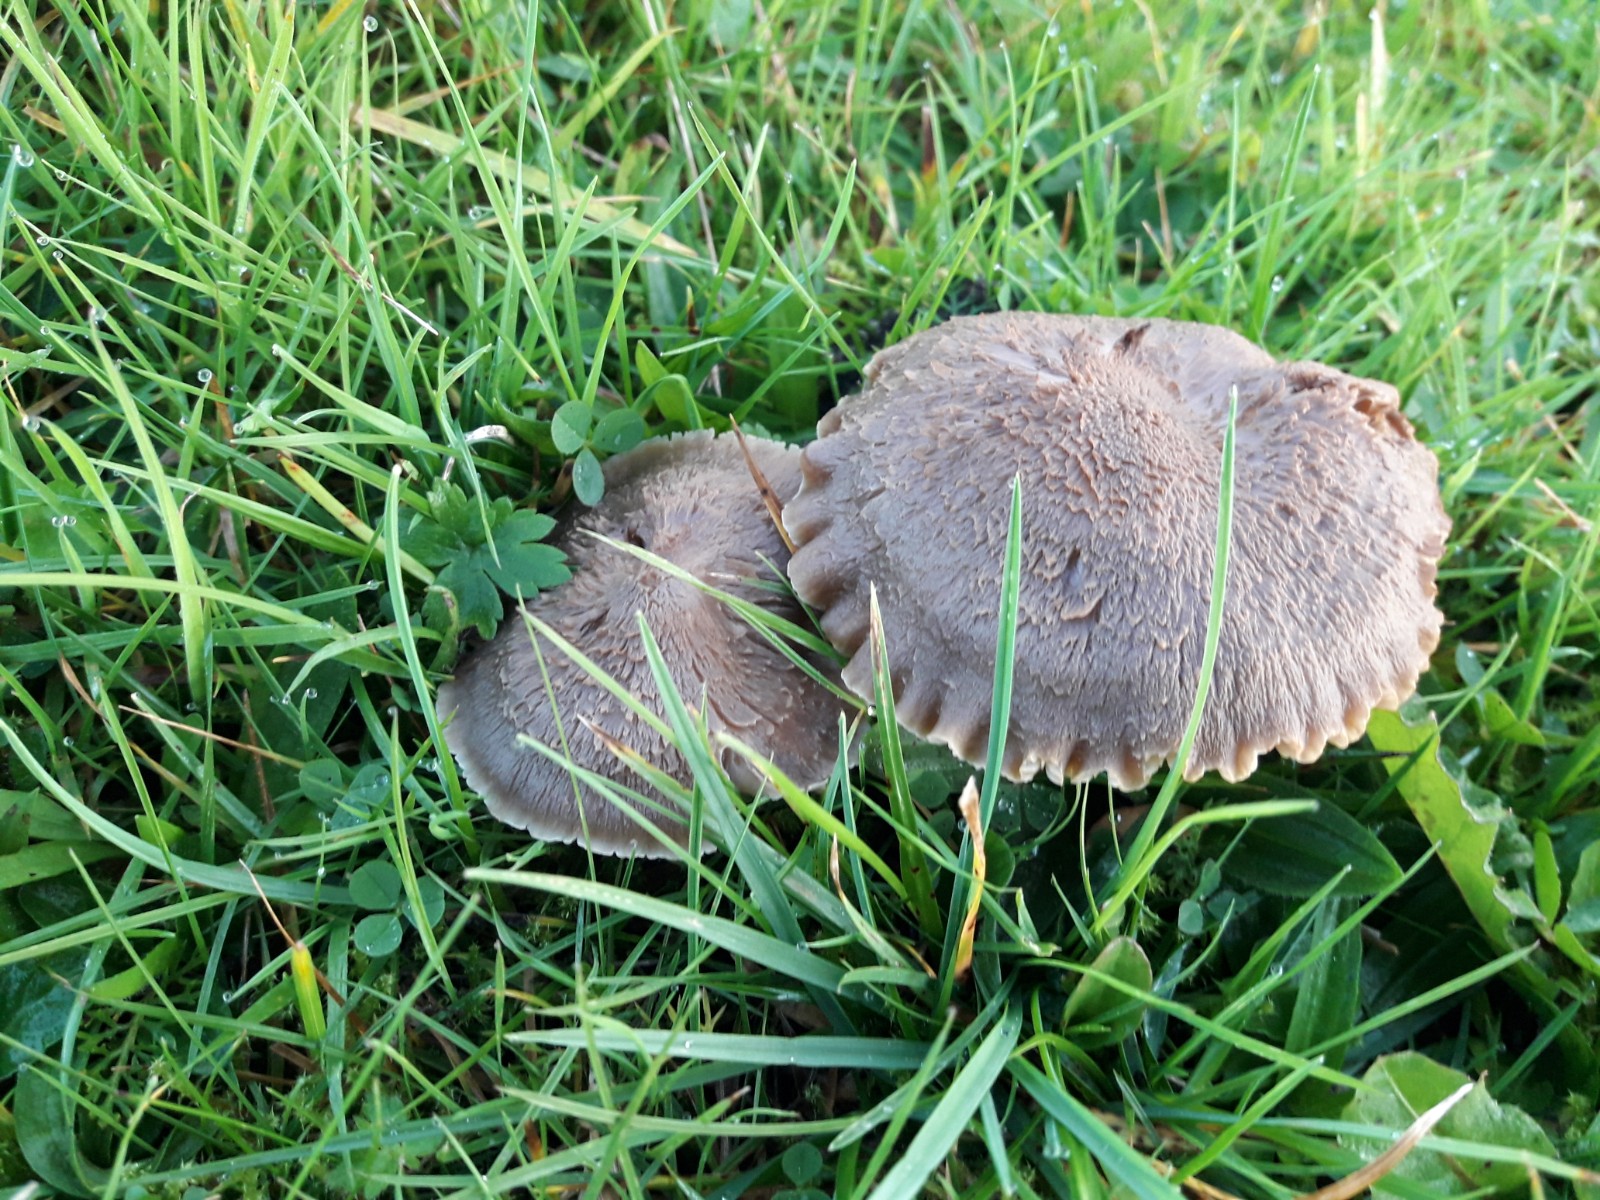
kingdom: Fungi
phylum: Basidiomycota
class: Agaricomycetes
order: Agaricales
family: Hygrophoraceae
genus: Neohygrocybe
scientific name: Neohygrocybe nitrata
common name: stinkende vokshat
